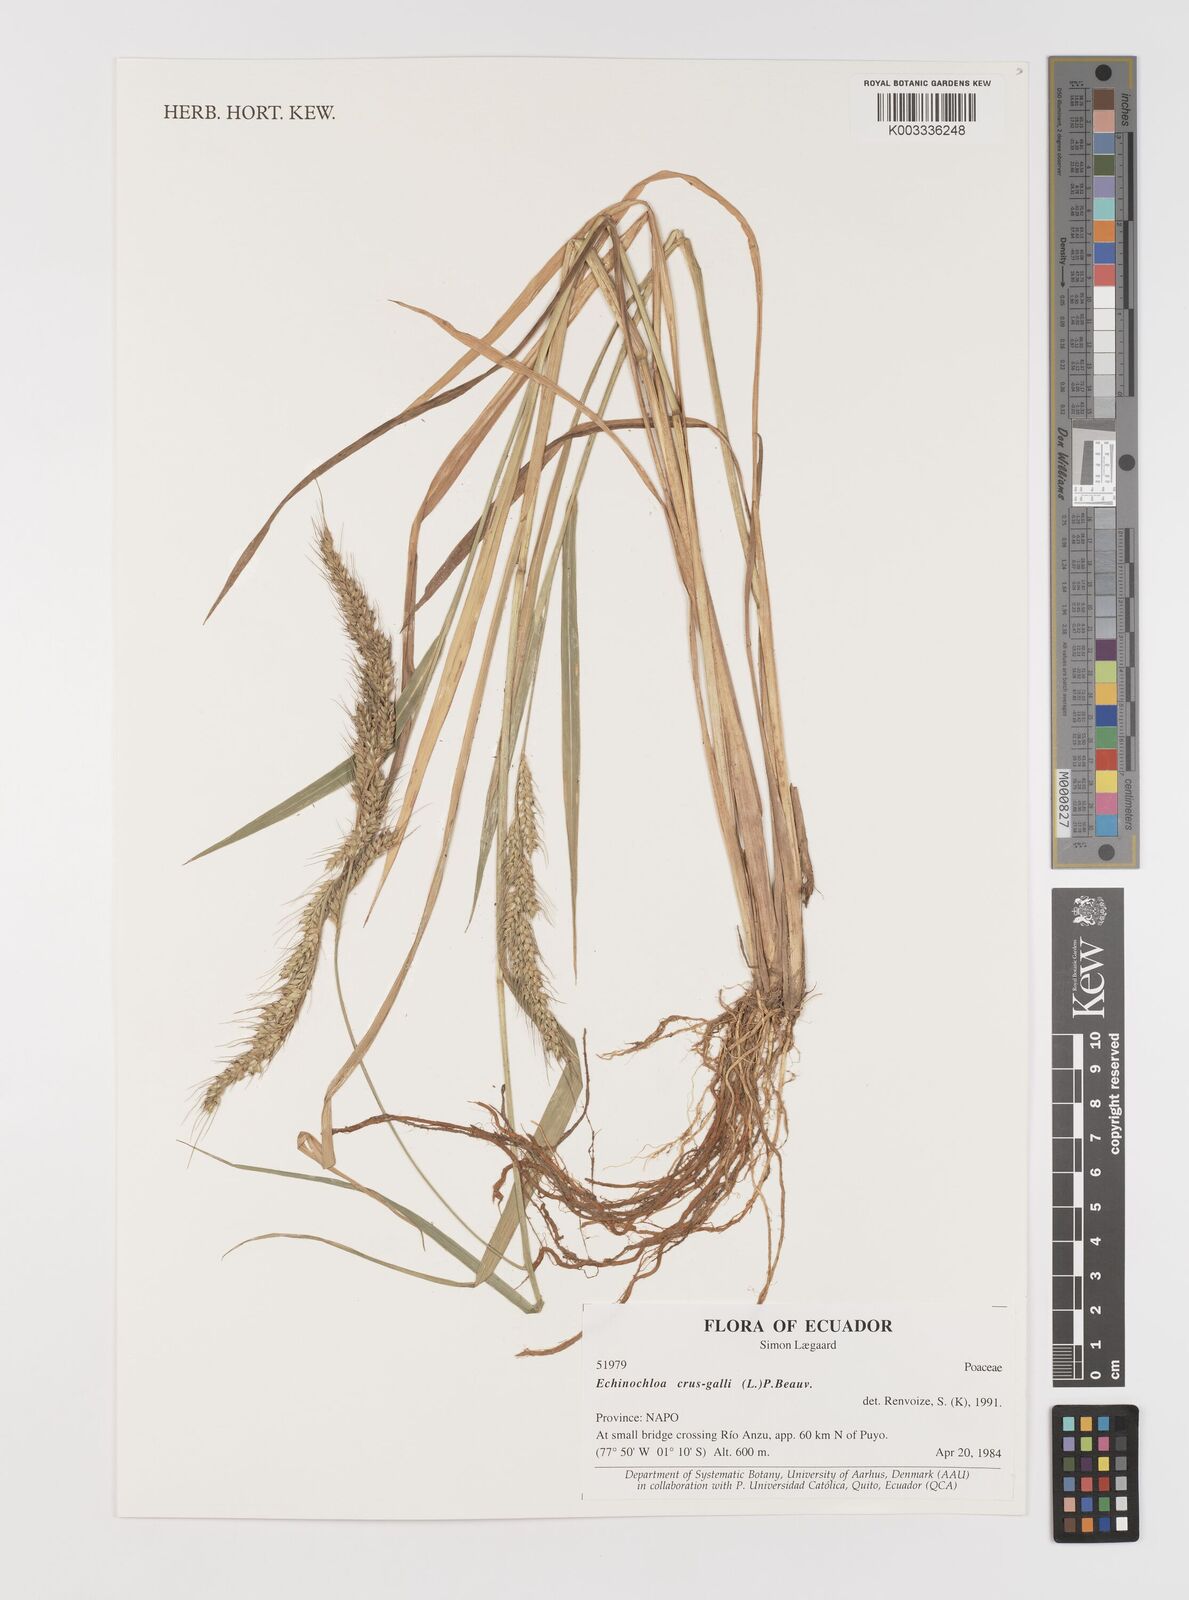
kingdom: Plantae
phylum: Tracheophyta
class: Liliopsida
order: Poales
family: Poaceae
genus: Echinochloa
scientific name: Echinochloa crus-galli
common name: Cockspur
